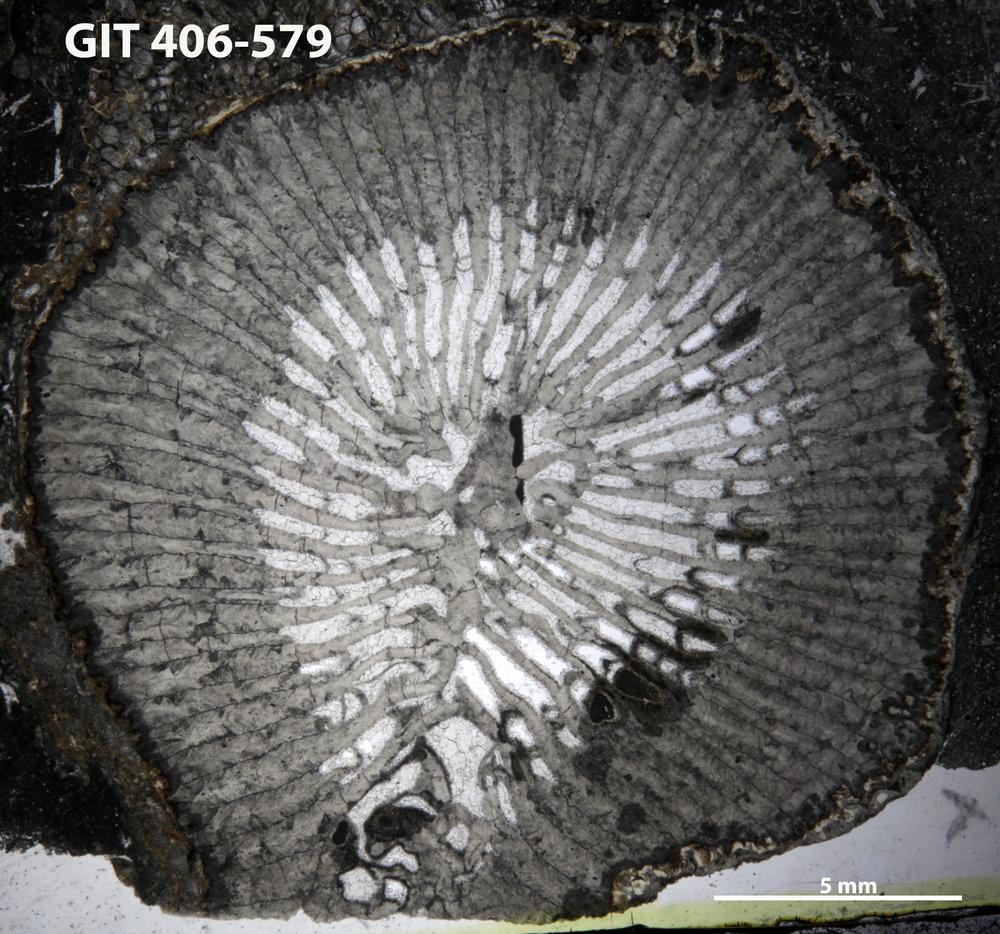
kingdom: Animalia
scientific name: Animalia
